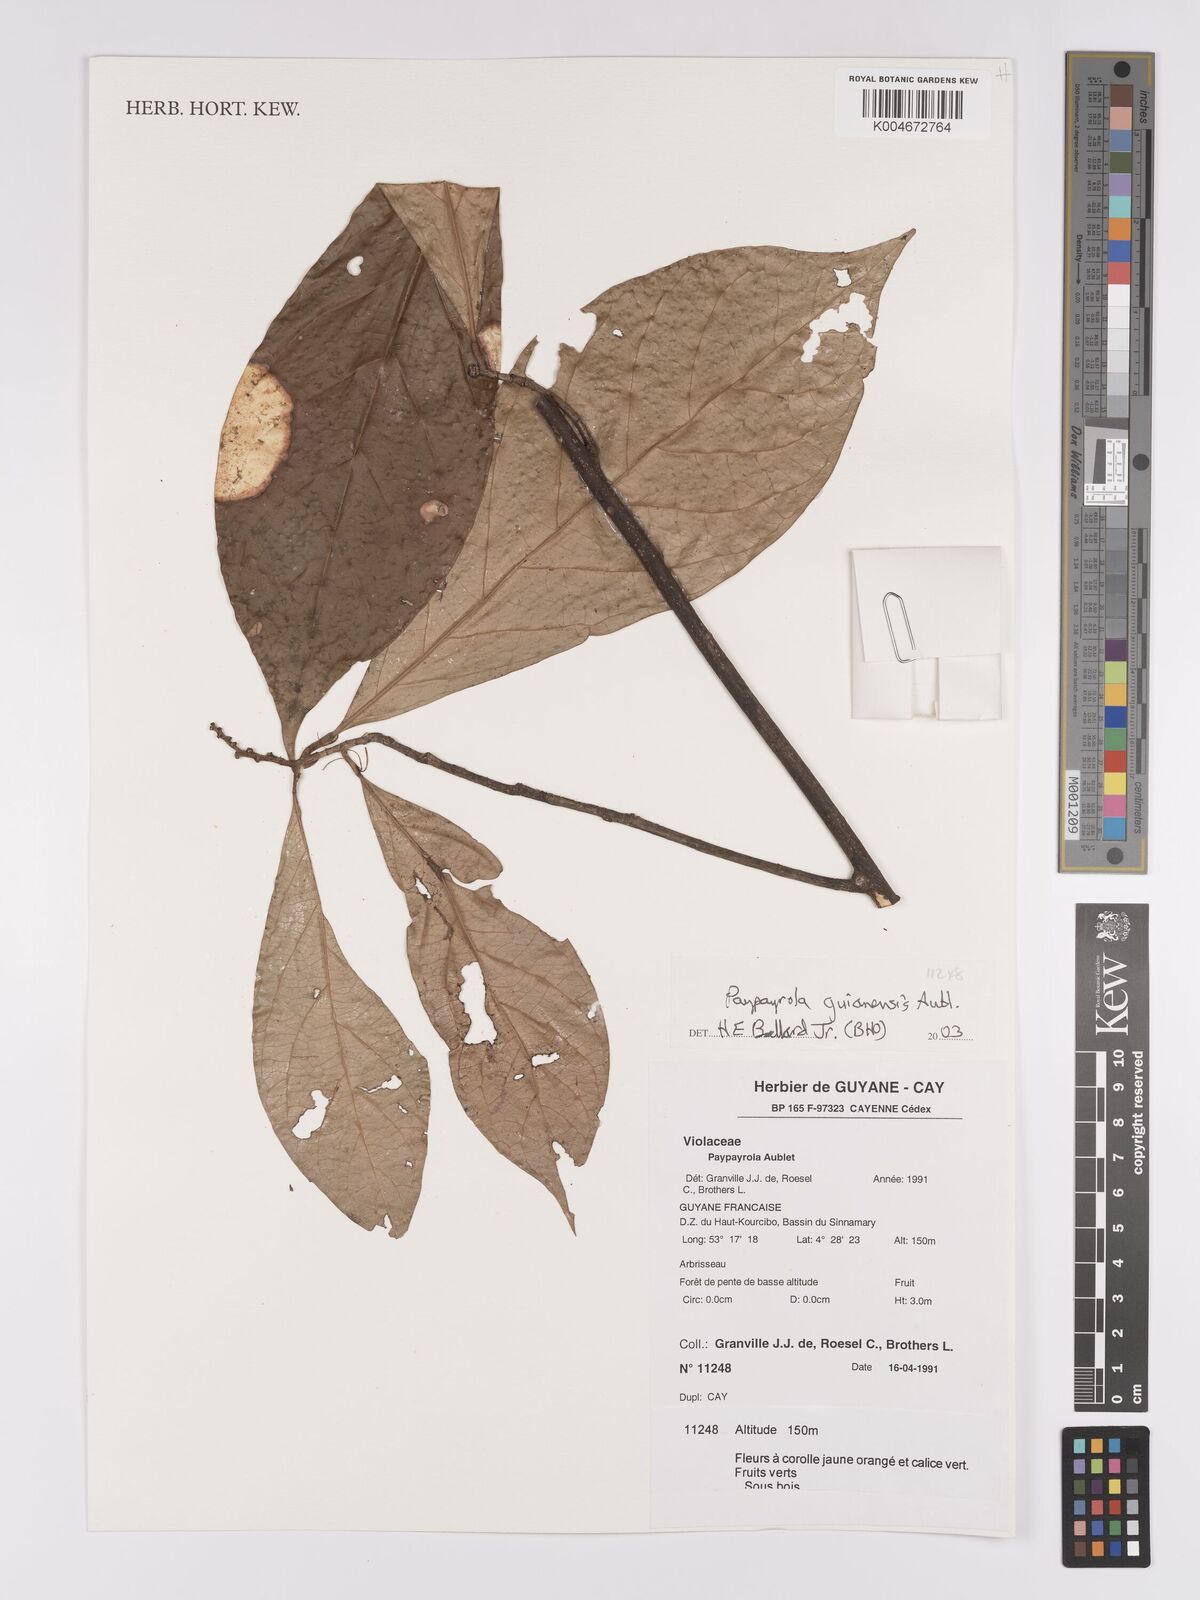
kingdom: Plantae
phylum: Tracheophyta
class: Magnoliopsida
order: Malpighiales
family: Violaceae
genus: Paypayrola
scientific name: Paypayrola guianensis
